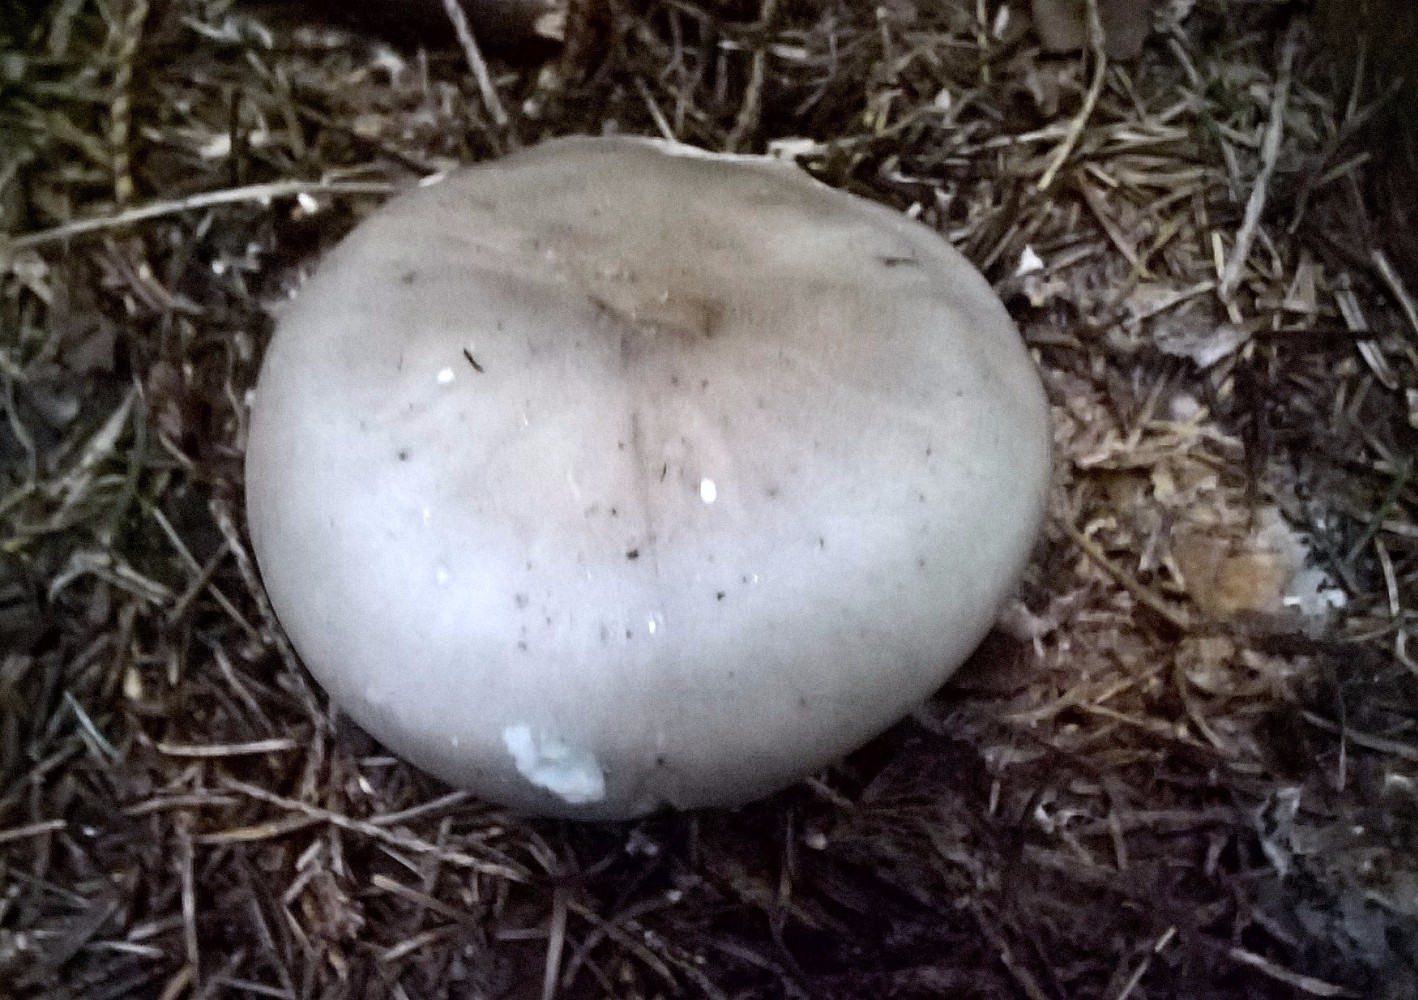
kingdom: Fungi
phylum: Basidiomycota
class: Agaricomycetes
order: Agaricales
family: Tricholomataceae
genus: Clitocybe
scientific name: Clitocybe nebularis
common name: tåge-tragthat
